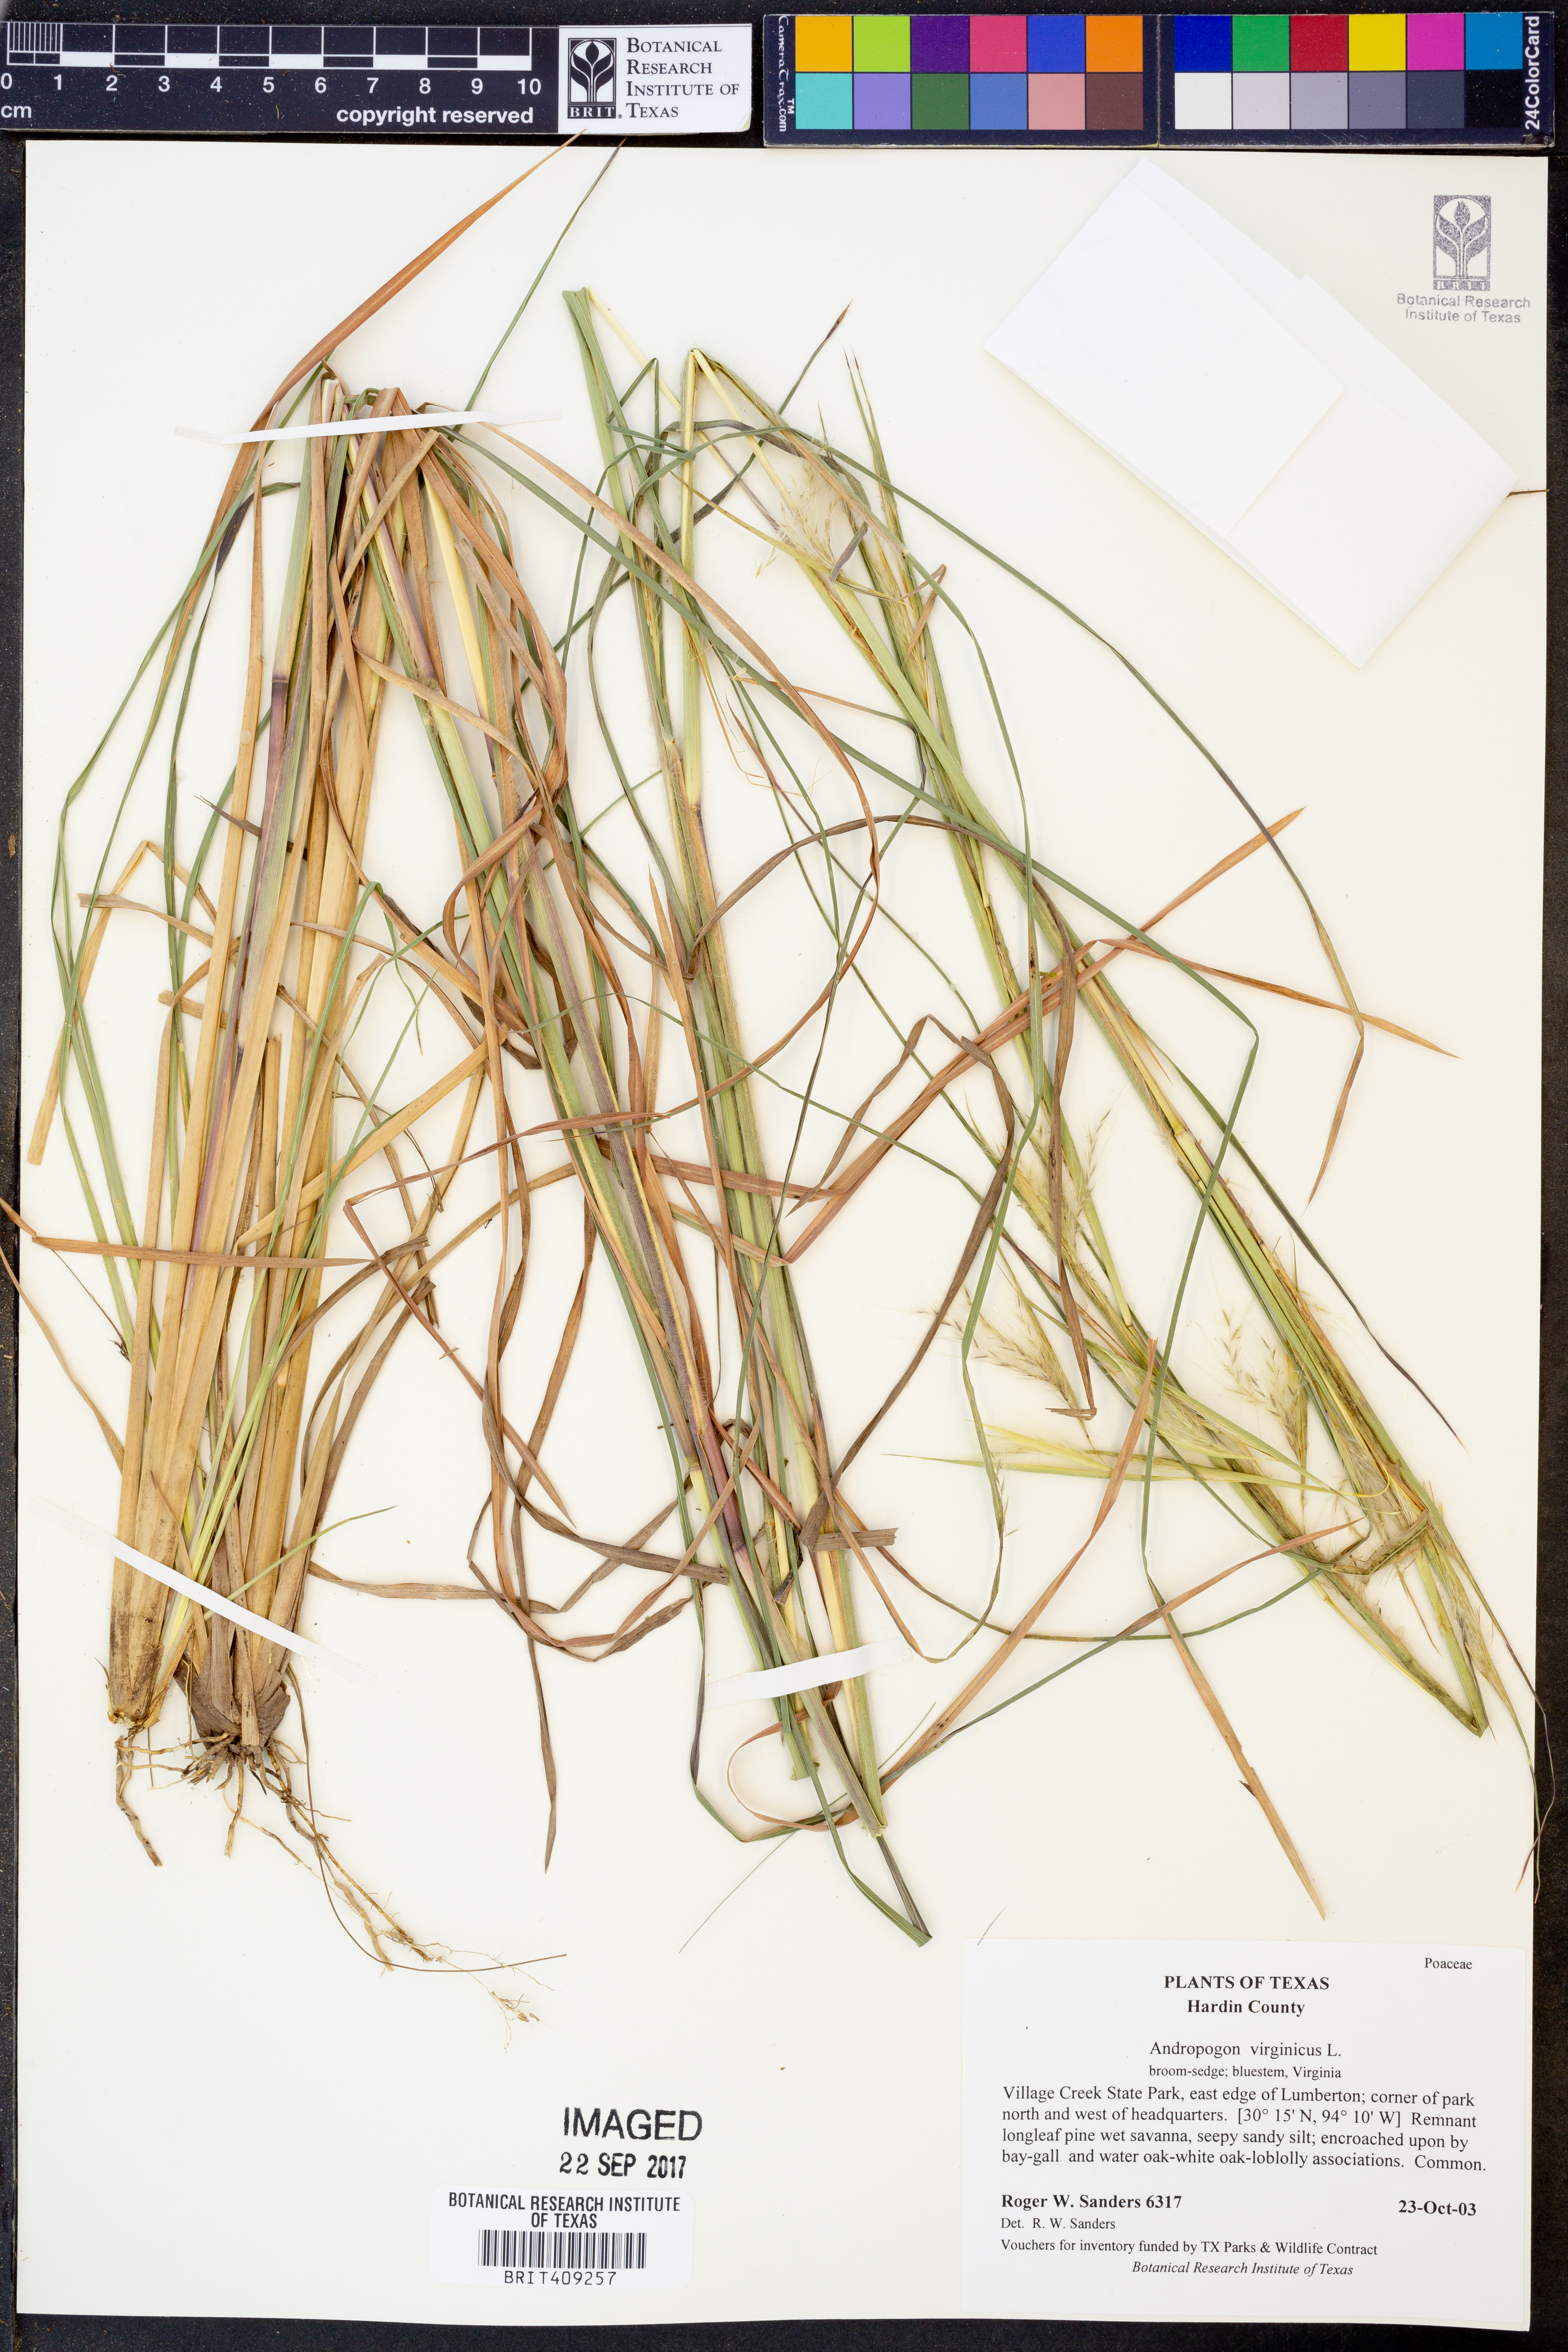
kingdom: Plantae
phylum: Tracheophyta
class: Liliopsida
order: Poales
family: Poaceae
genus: Andropogon
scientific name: Andropogon virginicus
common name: Broomsedge bluestem
